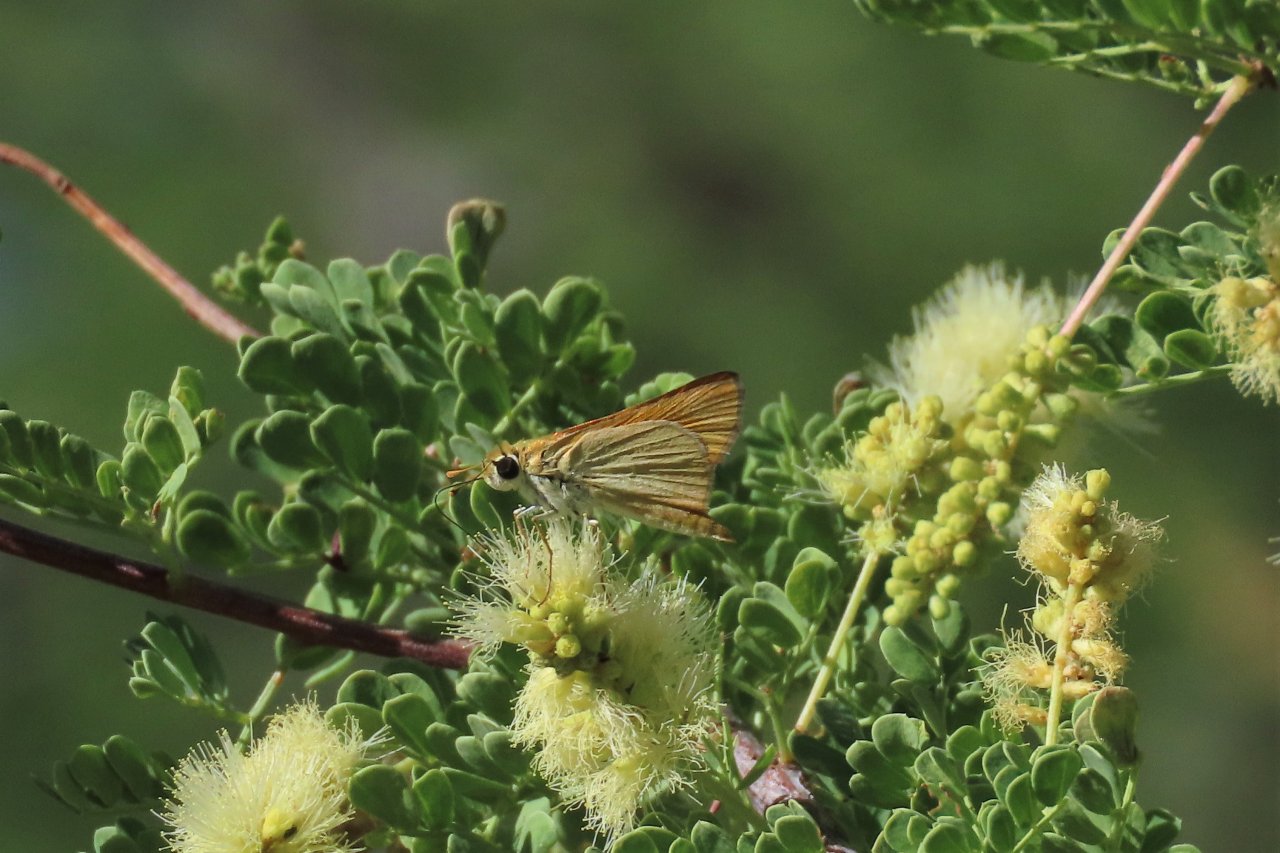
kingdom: Animalia
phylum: Arthropoda
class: Insecta
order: Lepidoptera
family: Hesperiidae
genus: Copaeodes
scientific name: Copaeodes aurantiaca
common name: Orange Skipperling
